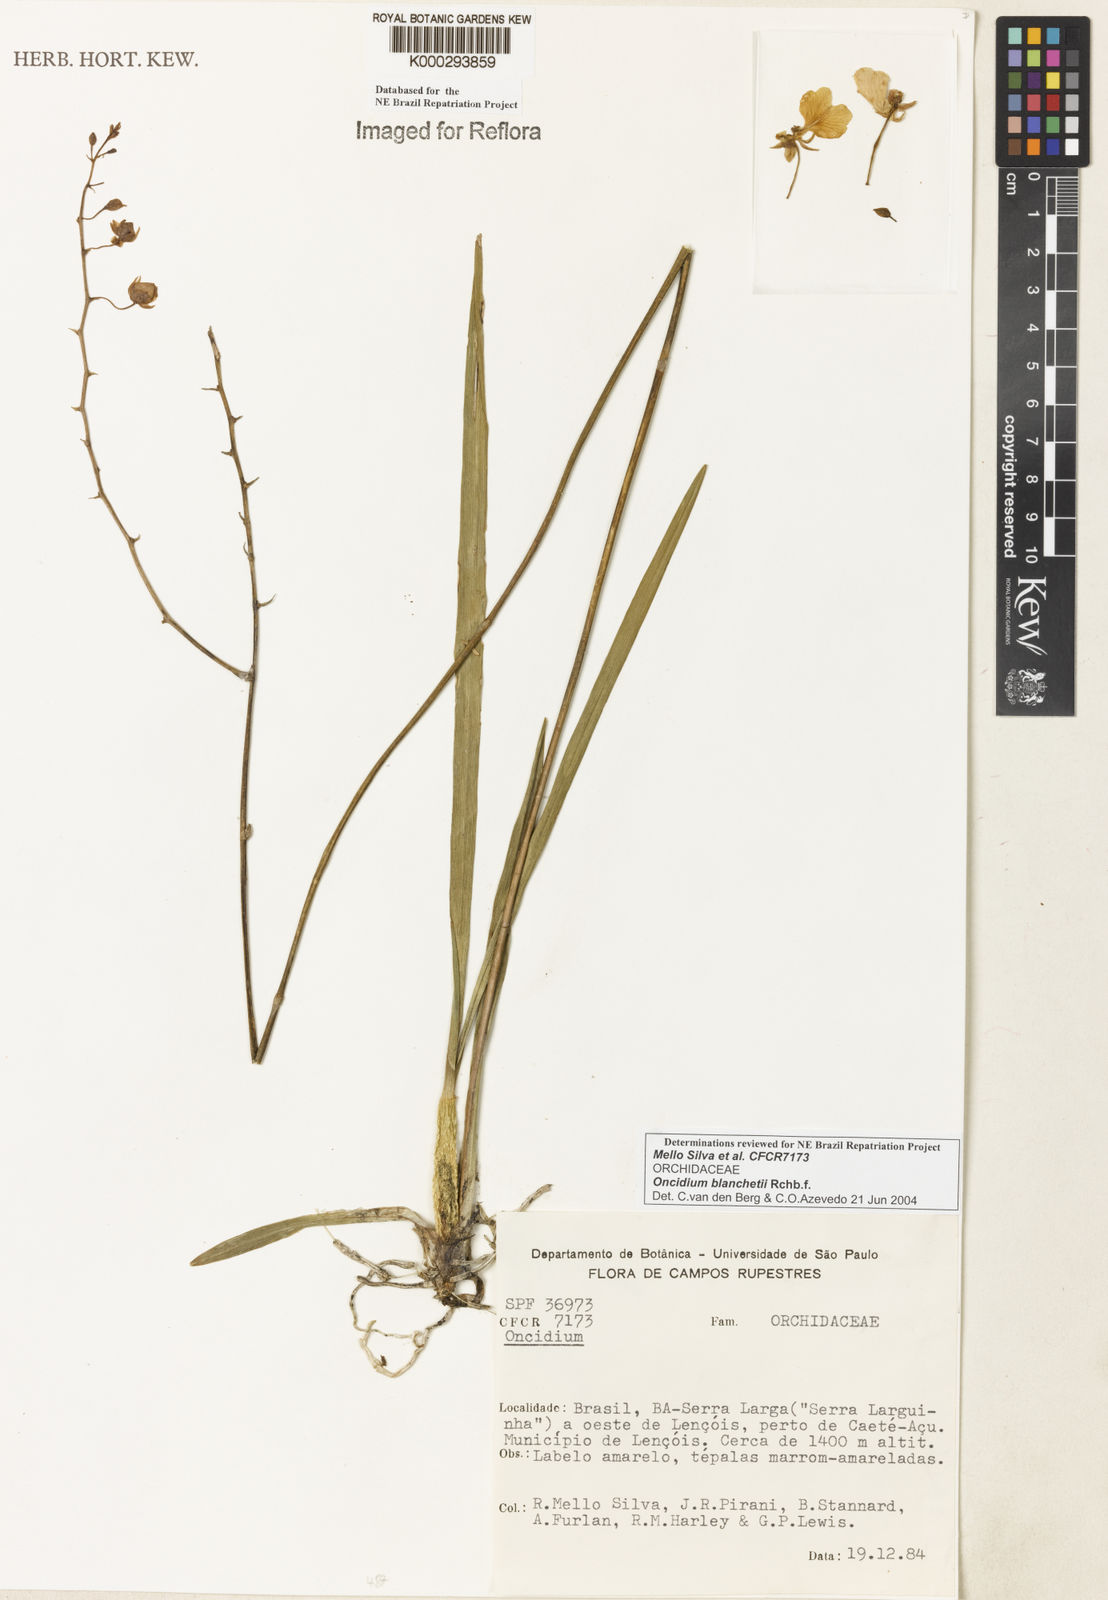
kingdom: Plantae
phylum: Tracheophyta
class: Liliopsida
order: Asparagales
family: Orchidaceae
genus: Gomesa
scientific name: Gomesa ramosa
